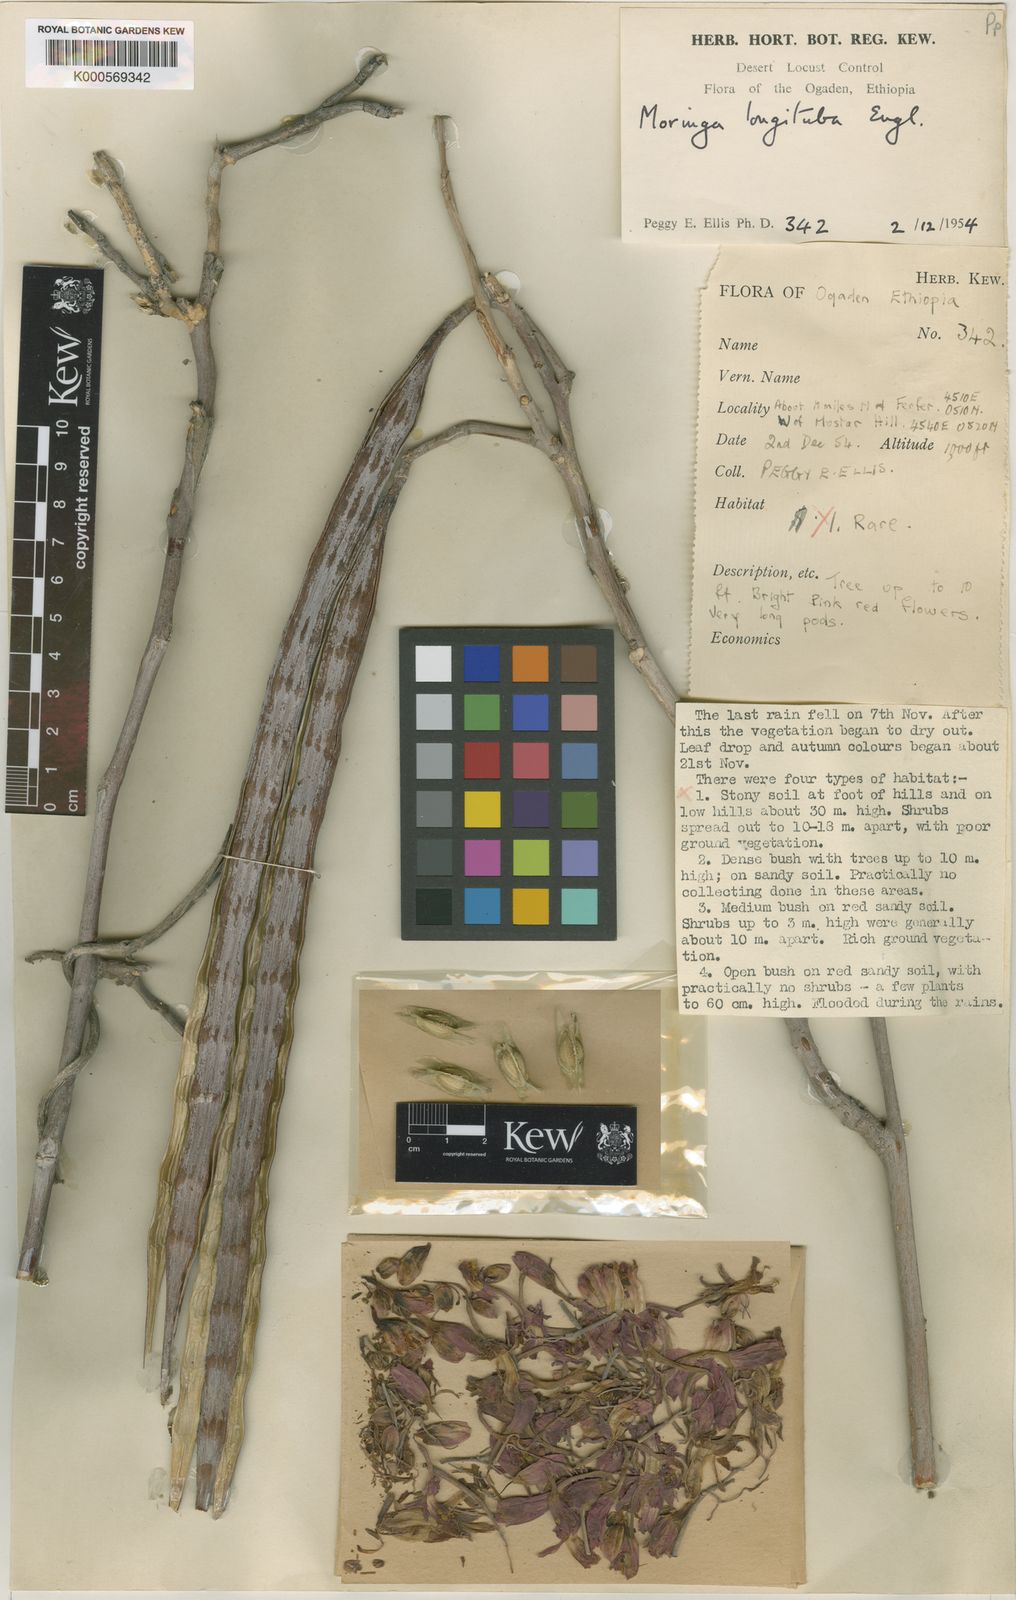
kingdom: Plantae
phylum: Tracheophyta
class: Magnoliopsida
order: Brassicales
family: Moringaceae
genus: Moringa
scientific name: Moringa longituba
